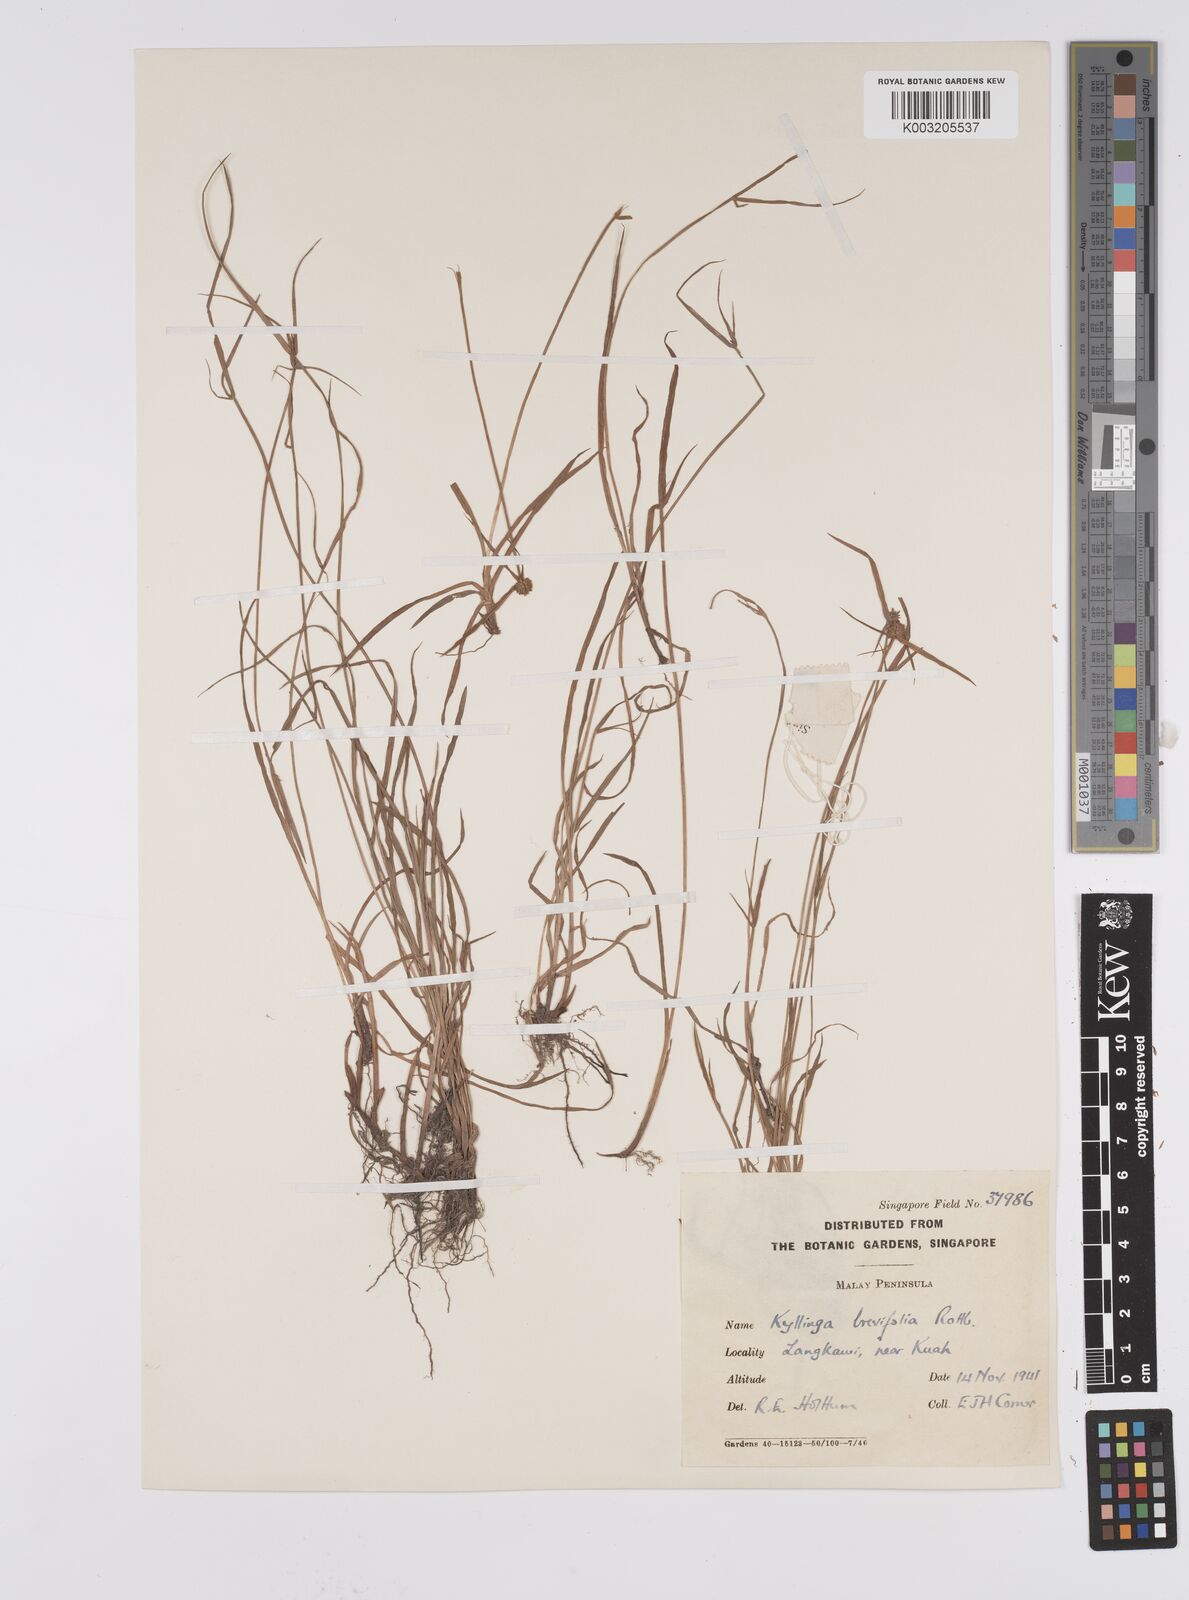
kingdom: Plantae
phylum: Tracheophyta
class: Liliopsida
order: Poales
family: Cyperaceae
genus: Cyperus
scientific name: Cyperus
